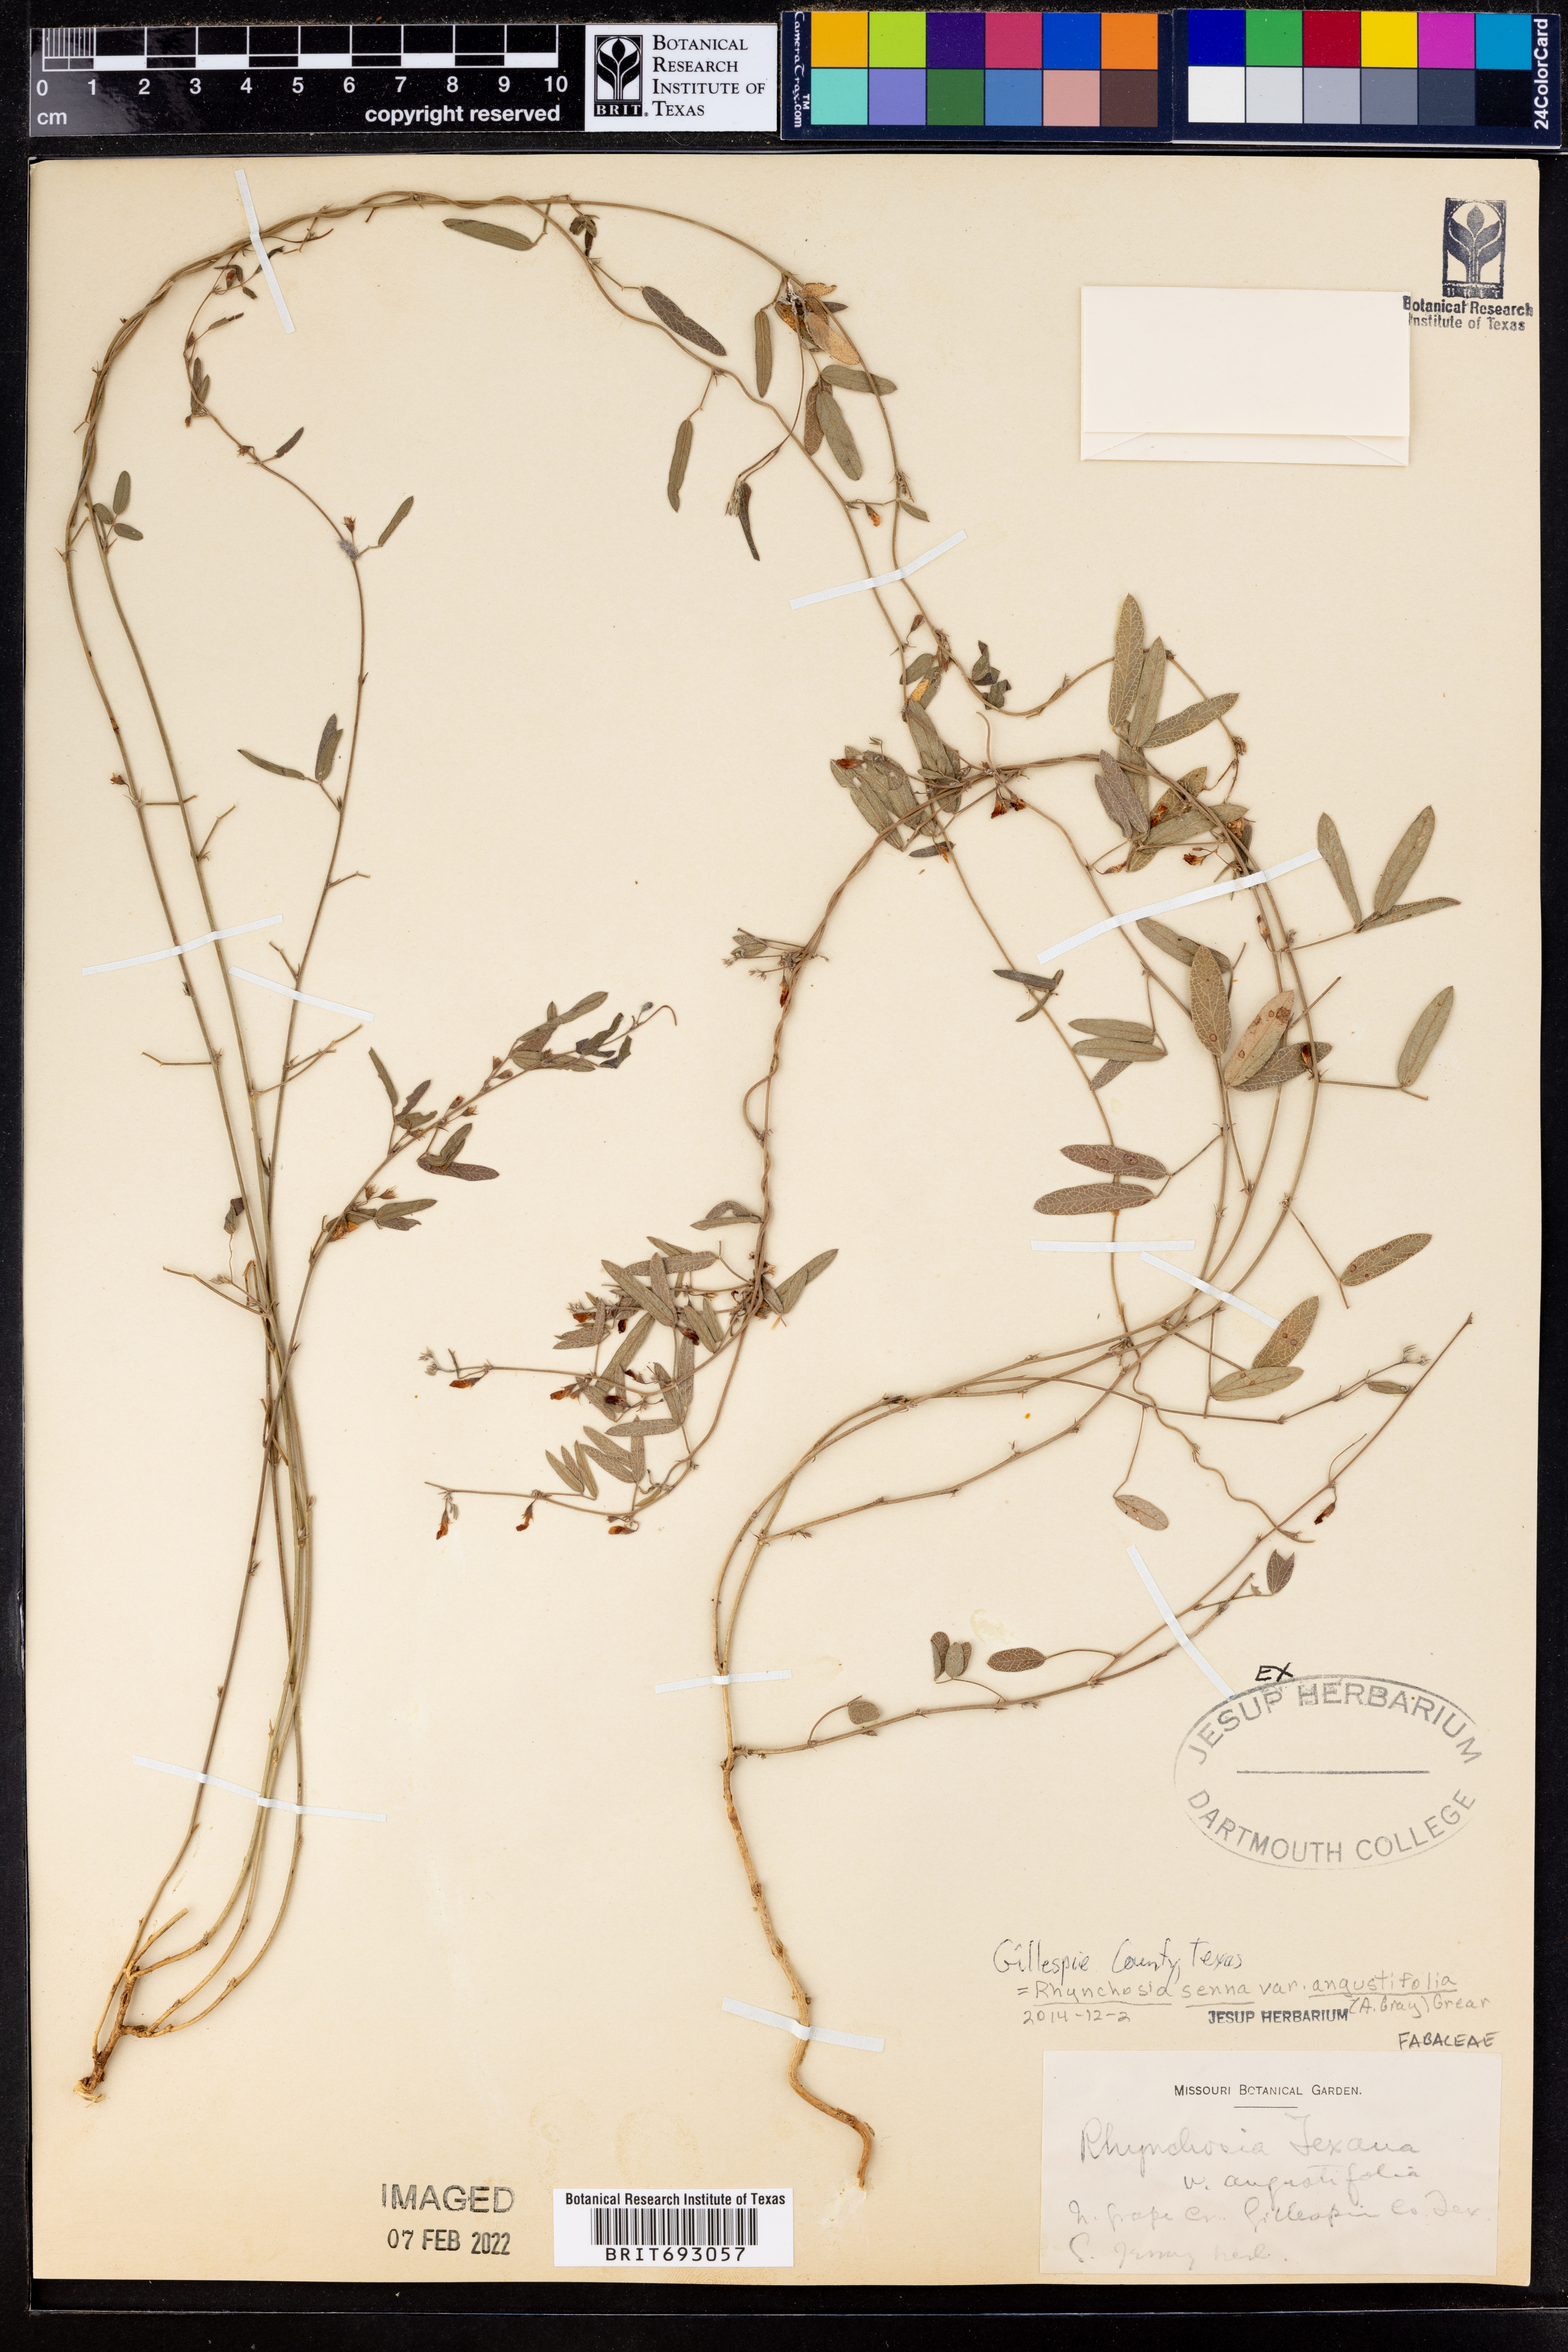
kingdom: Plantae
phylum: Tracheophyta
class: Magnoliopsida
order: Fabales
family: Fabaceae
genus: Rhynchosia
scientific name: Rhynchosia senna
